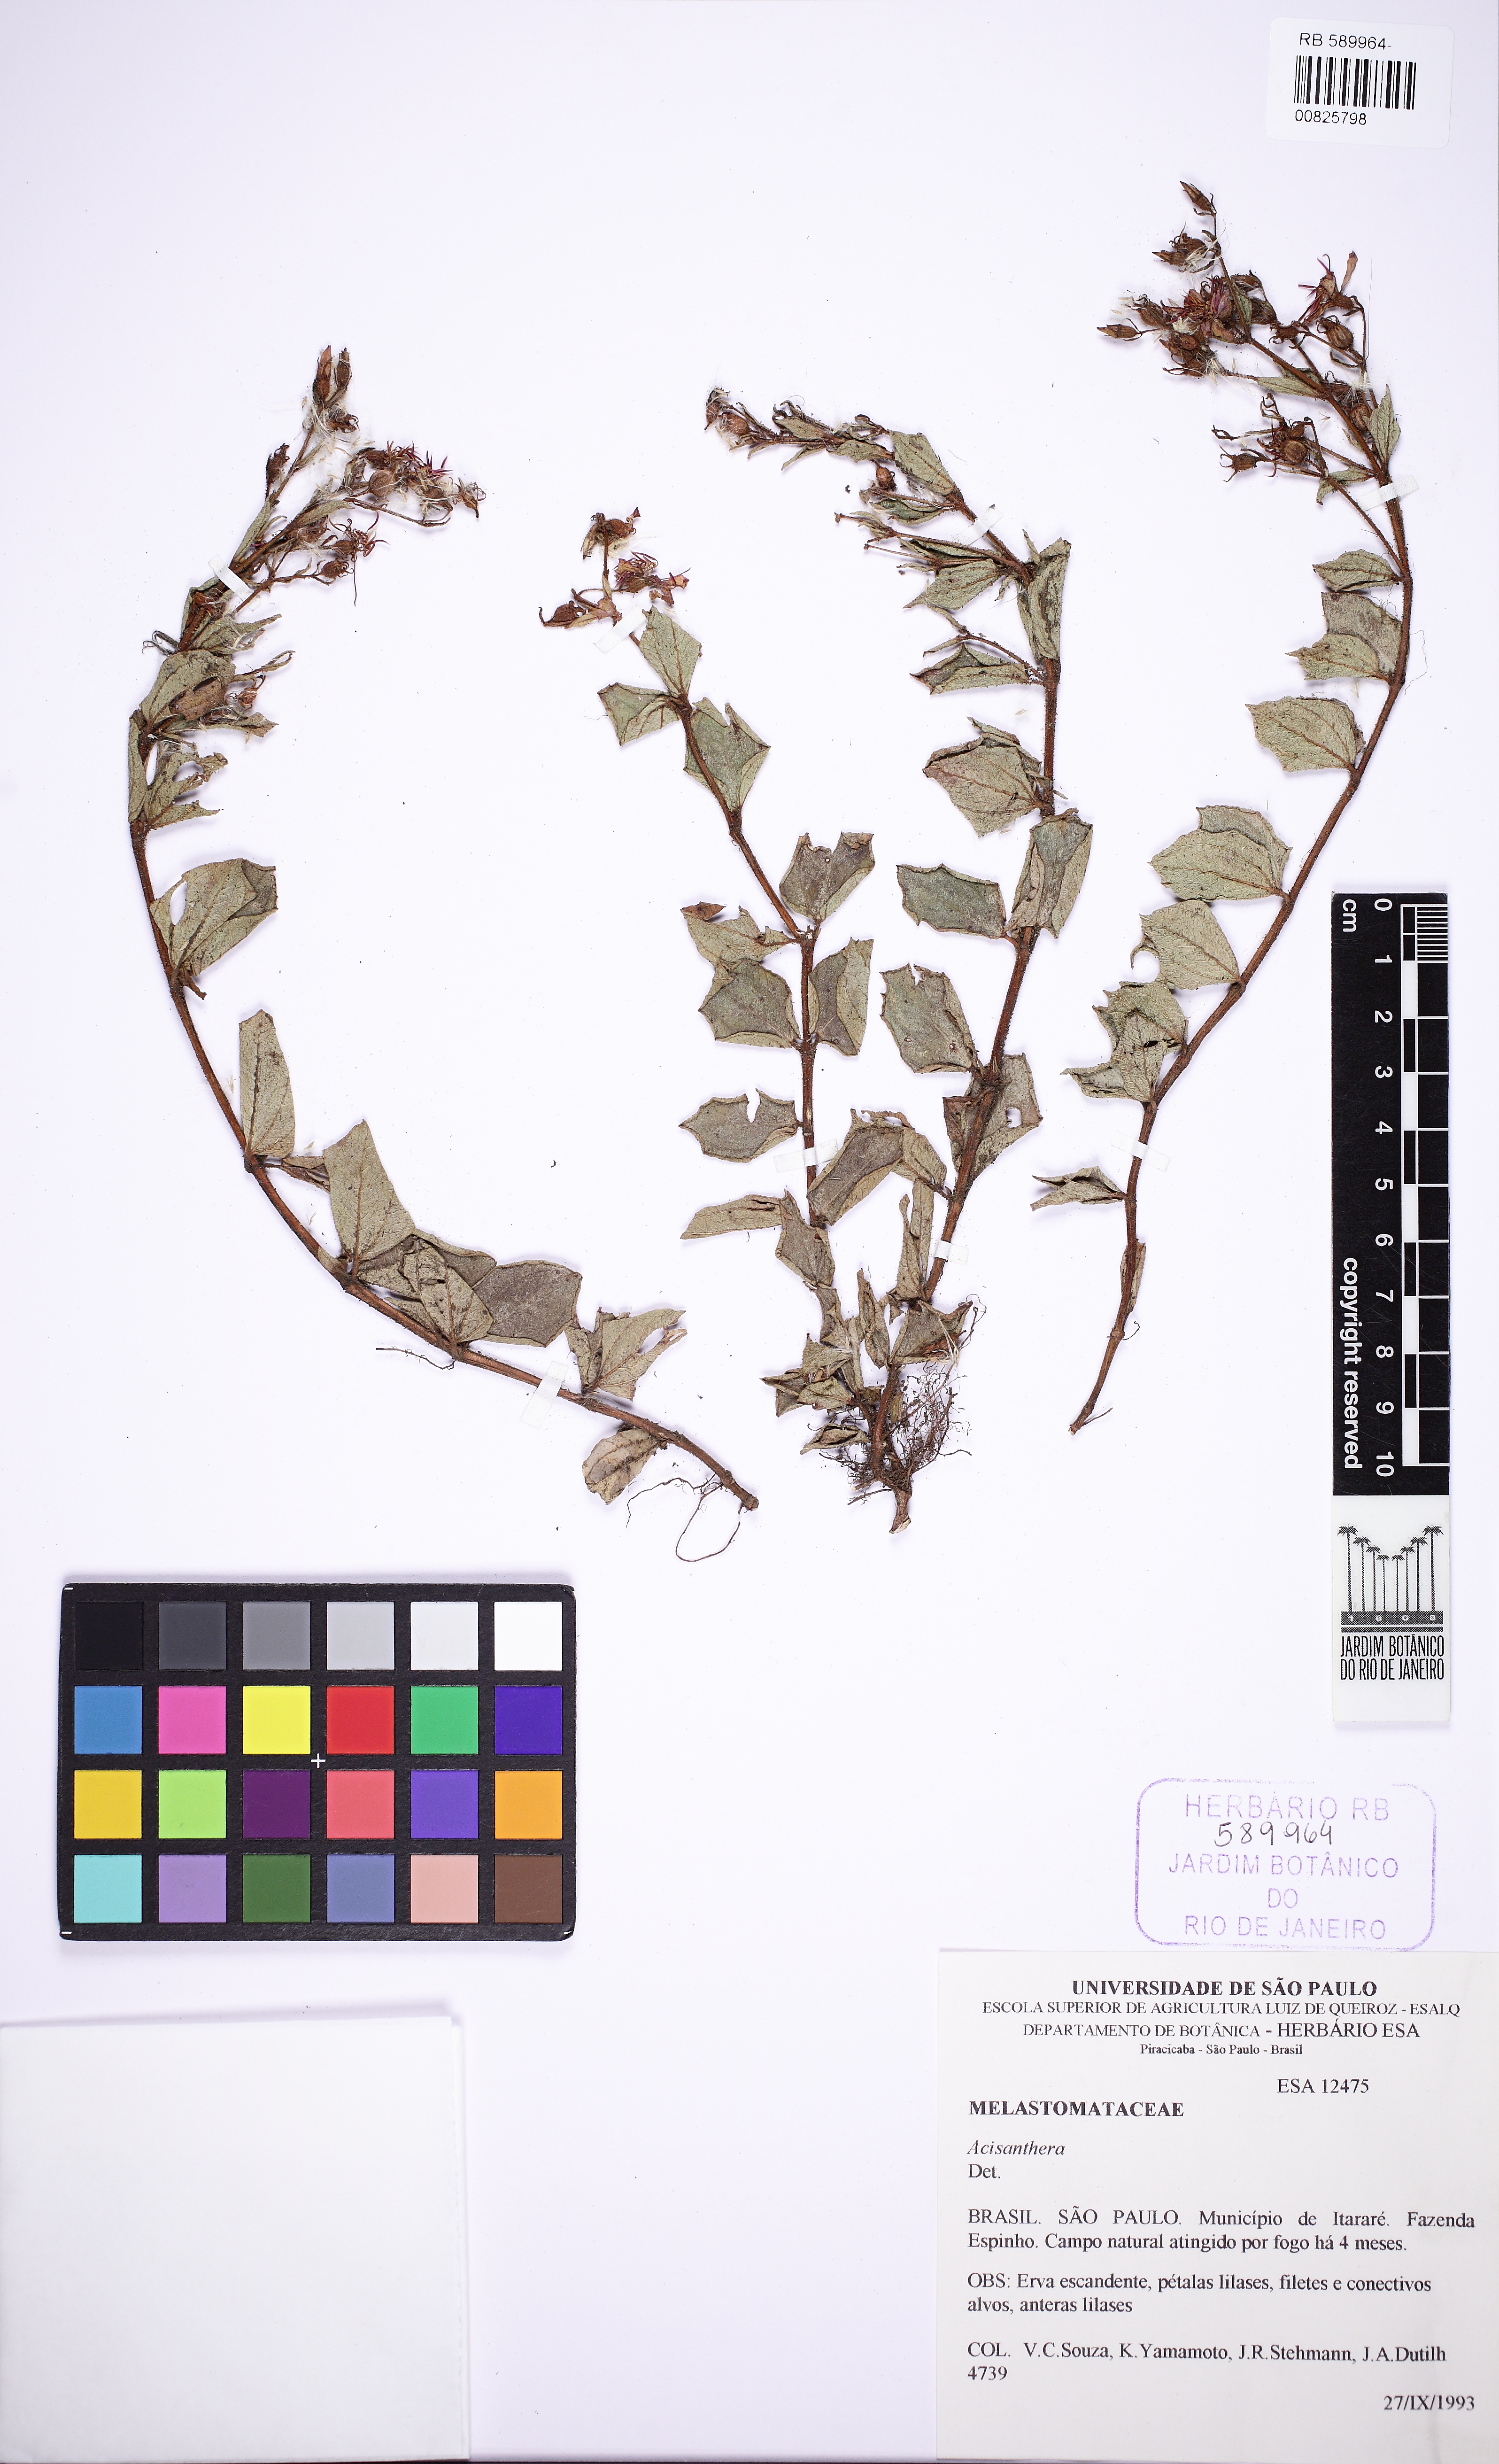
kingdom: Plantae
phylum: Tracheophyta
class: Magnoliopsida
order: Myrtales
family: Melastomataceae
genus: Acisanthera
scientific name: Acisanthera alsinaefolia
